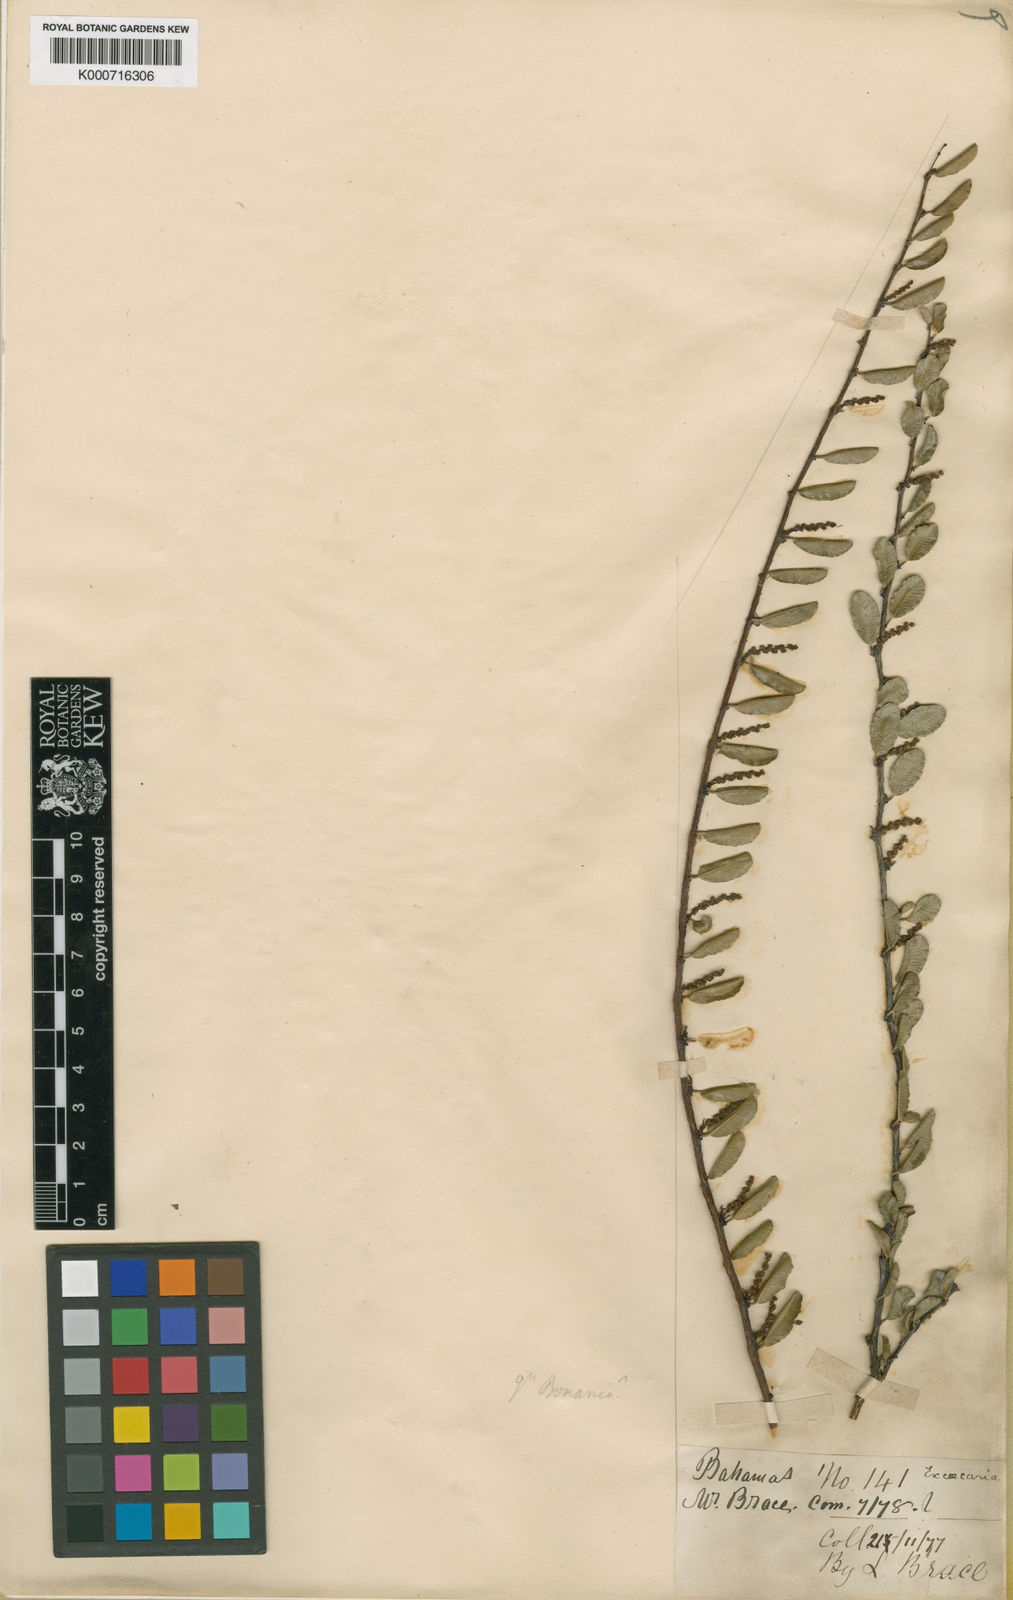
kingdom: Plantae
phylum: Tracheophyta
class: Magnoliopsida
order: Malpighiales
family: Euphorbiaceae
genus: Bonania
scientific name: Bonania
